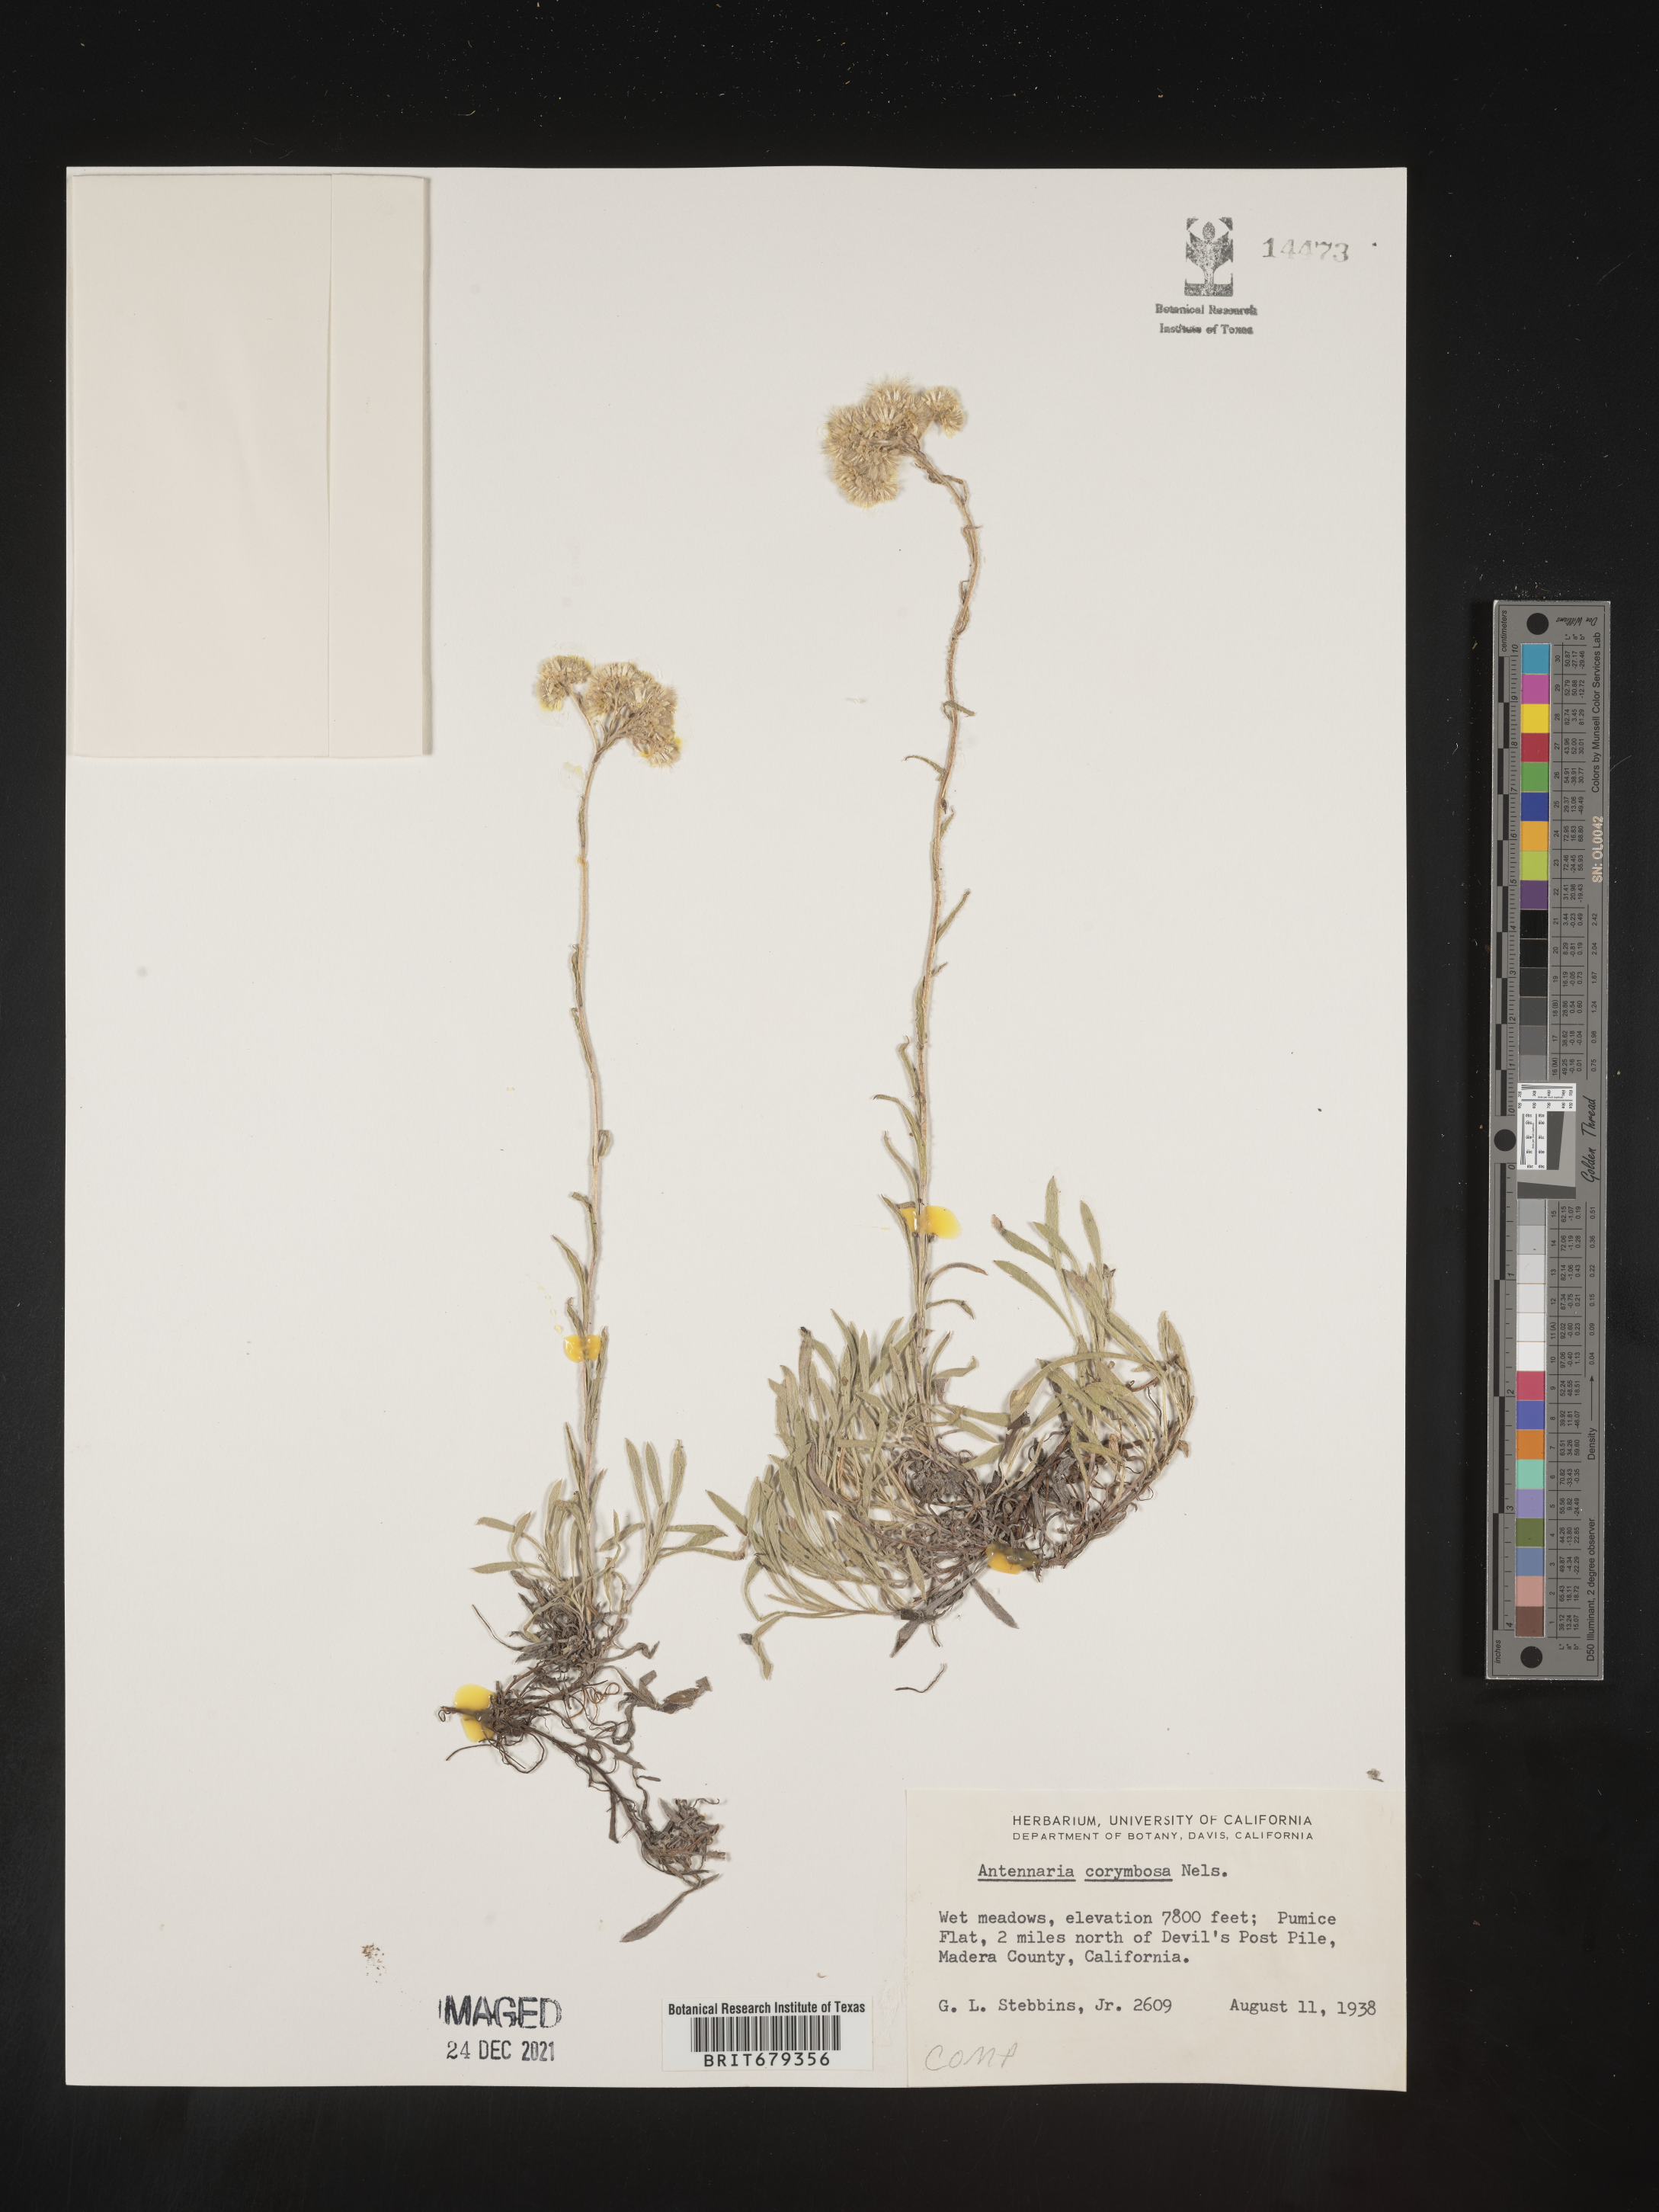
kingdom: Plantae
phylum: Tracheophyta
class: Magnoliopsida
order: Asterales
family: Asteraceae
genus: Antennaria
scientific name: Antennaria corymbosa
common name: Meadow pussytoes
